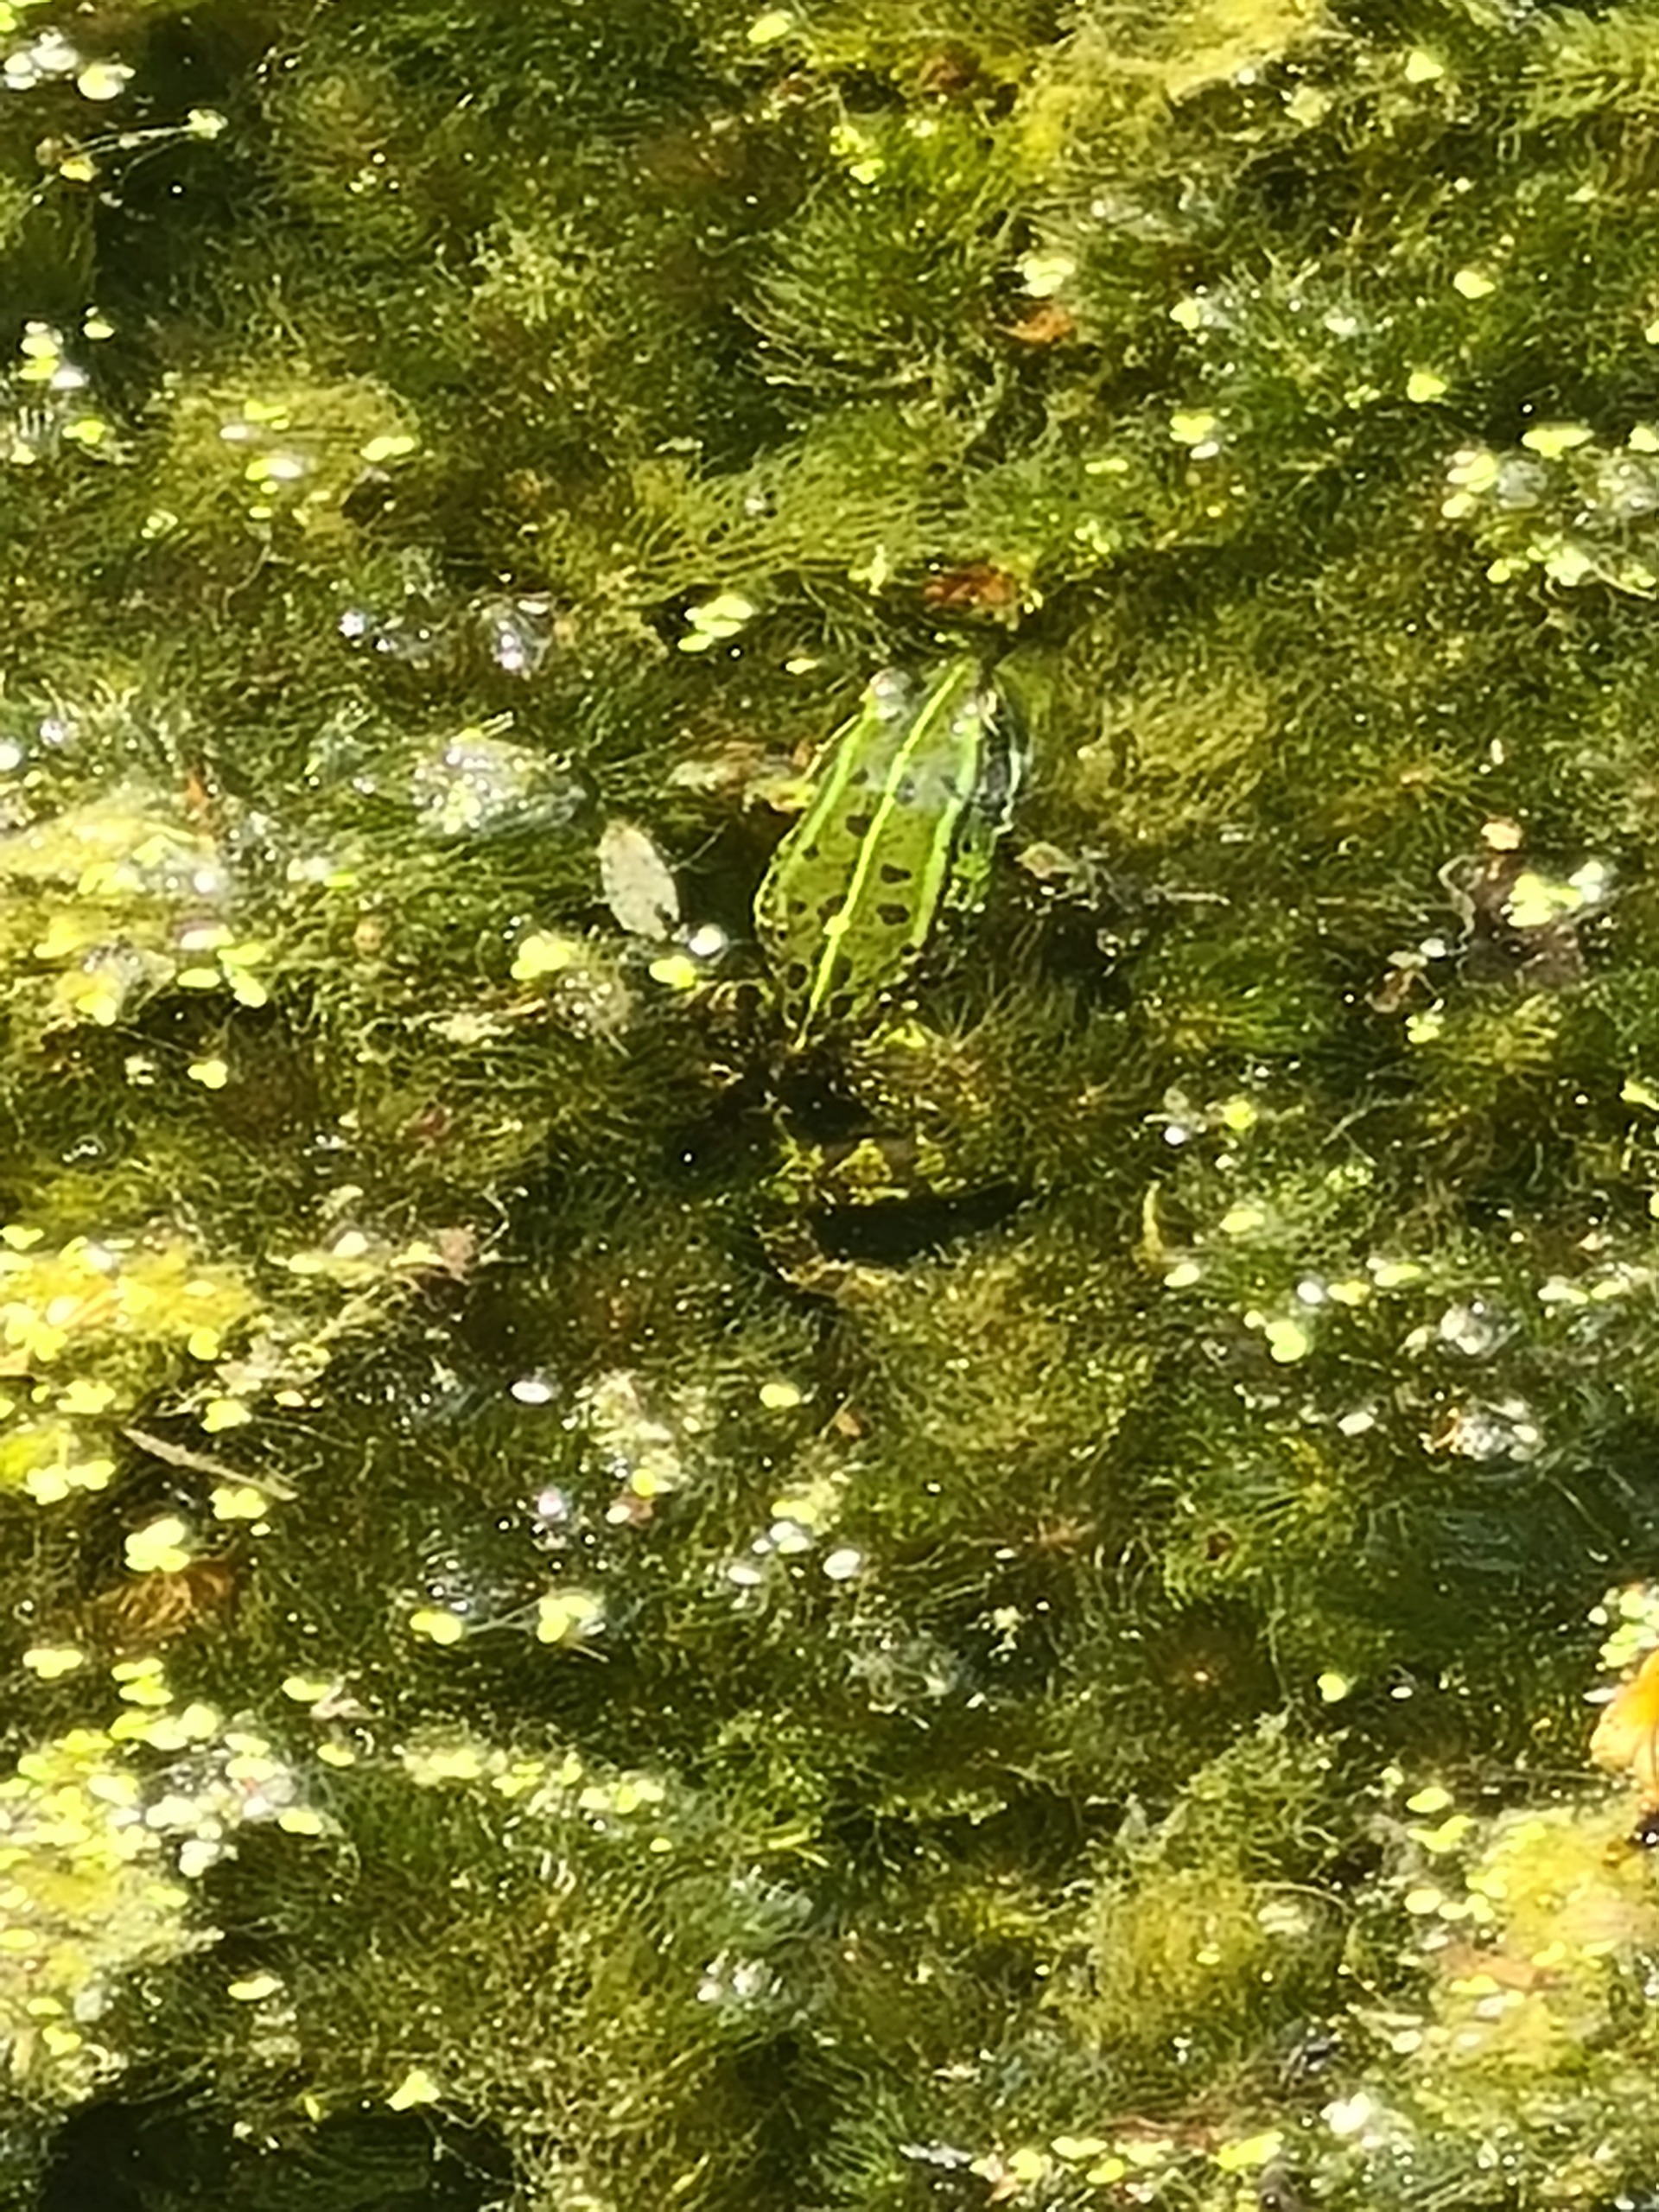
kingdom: Animalia
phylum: Chordata
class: Amphibia
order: Anura
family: Ranidae
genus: Pelophylax
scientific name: Pelophylax lessonae
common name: Grøn frø
